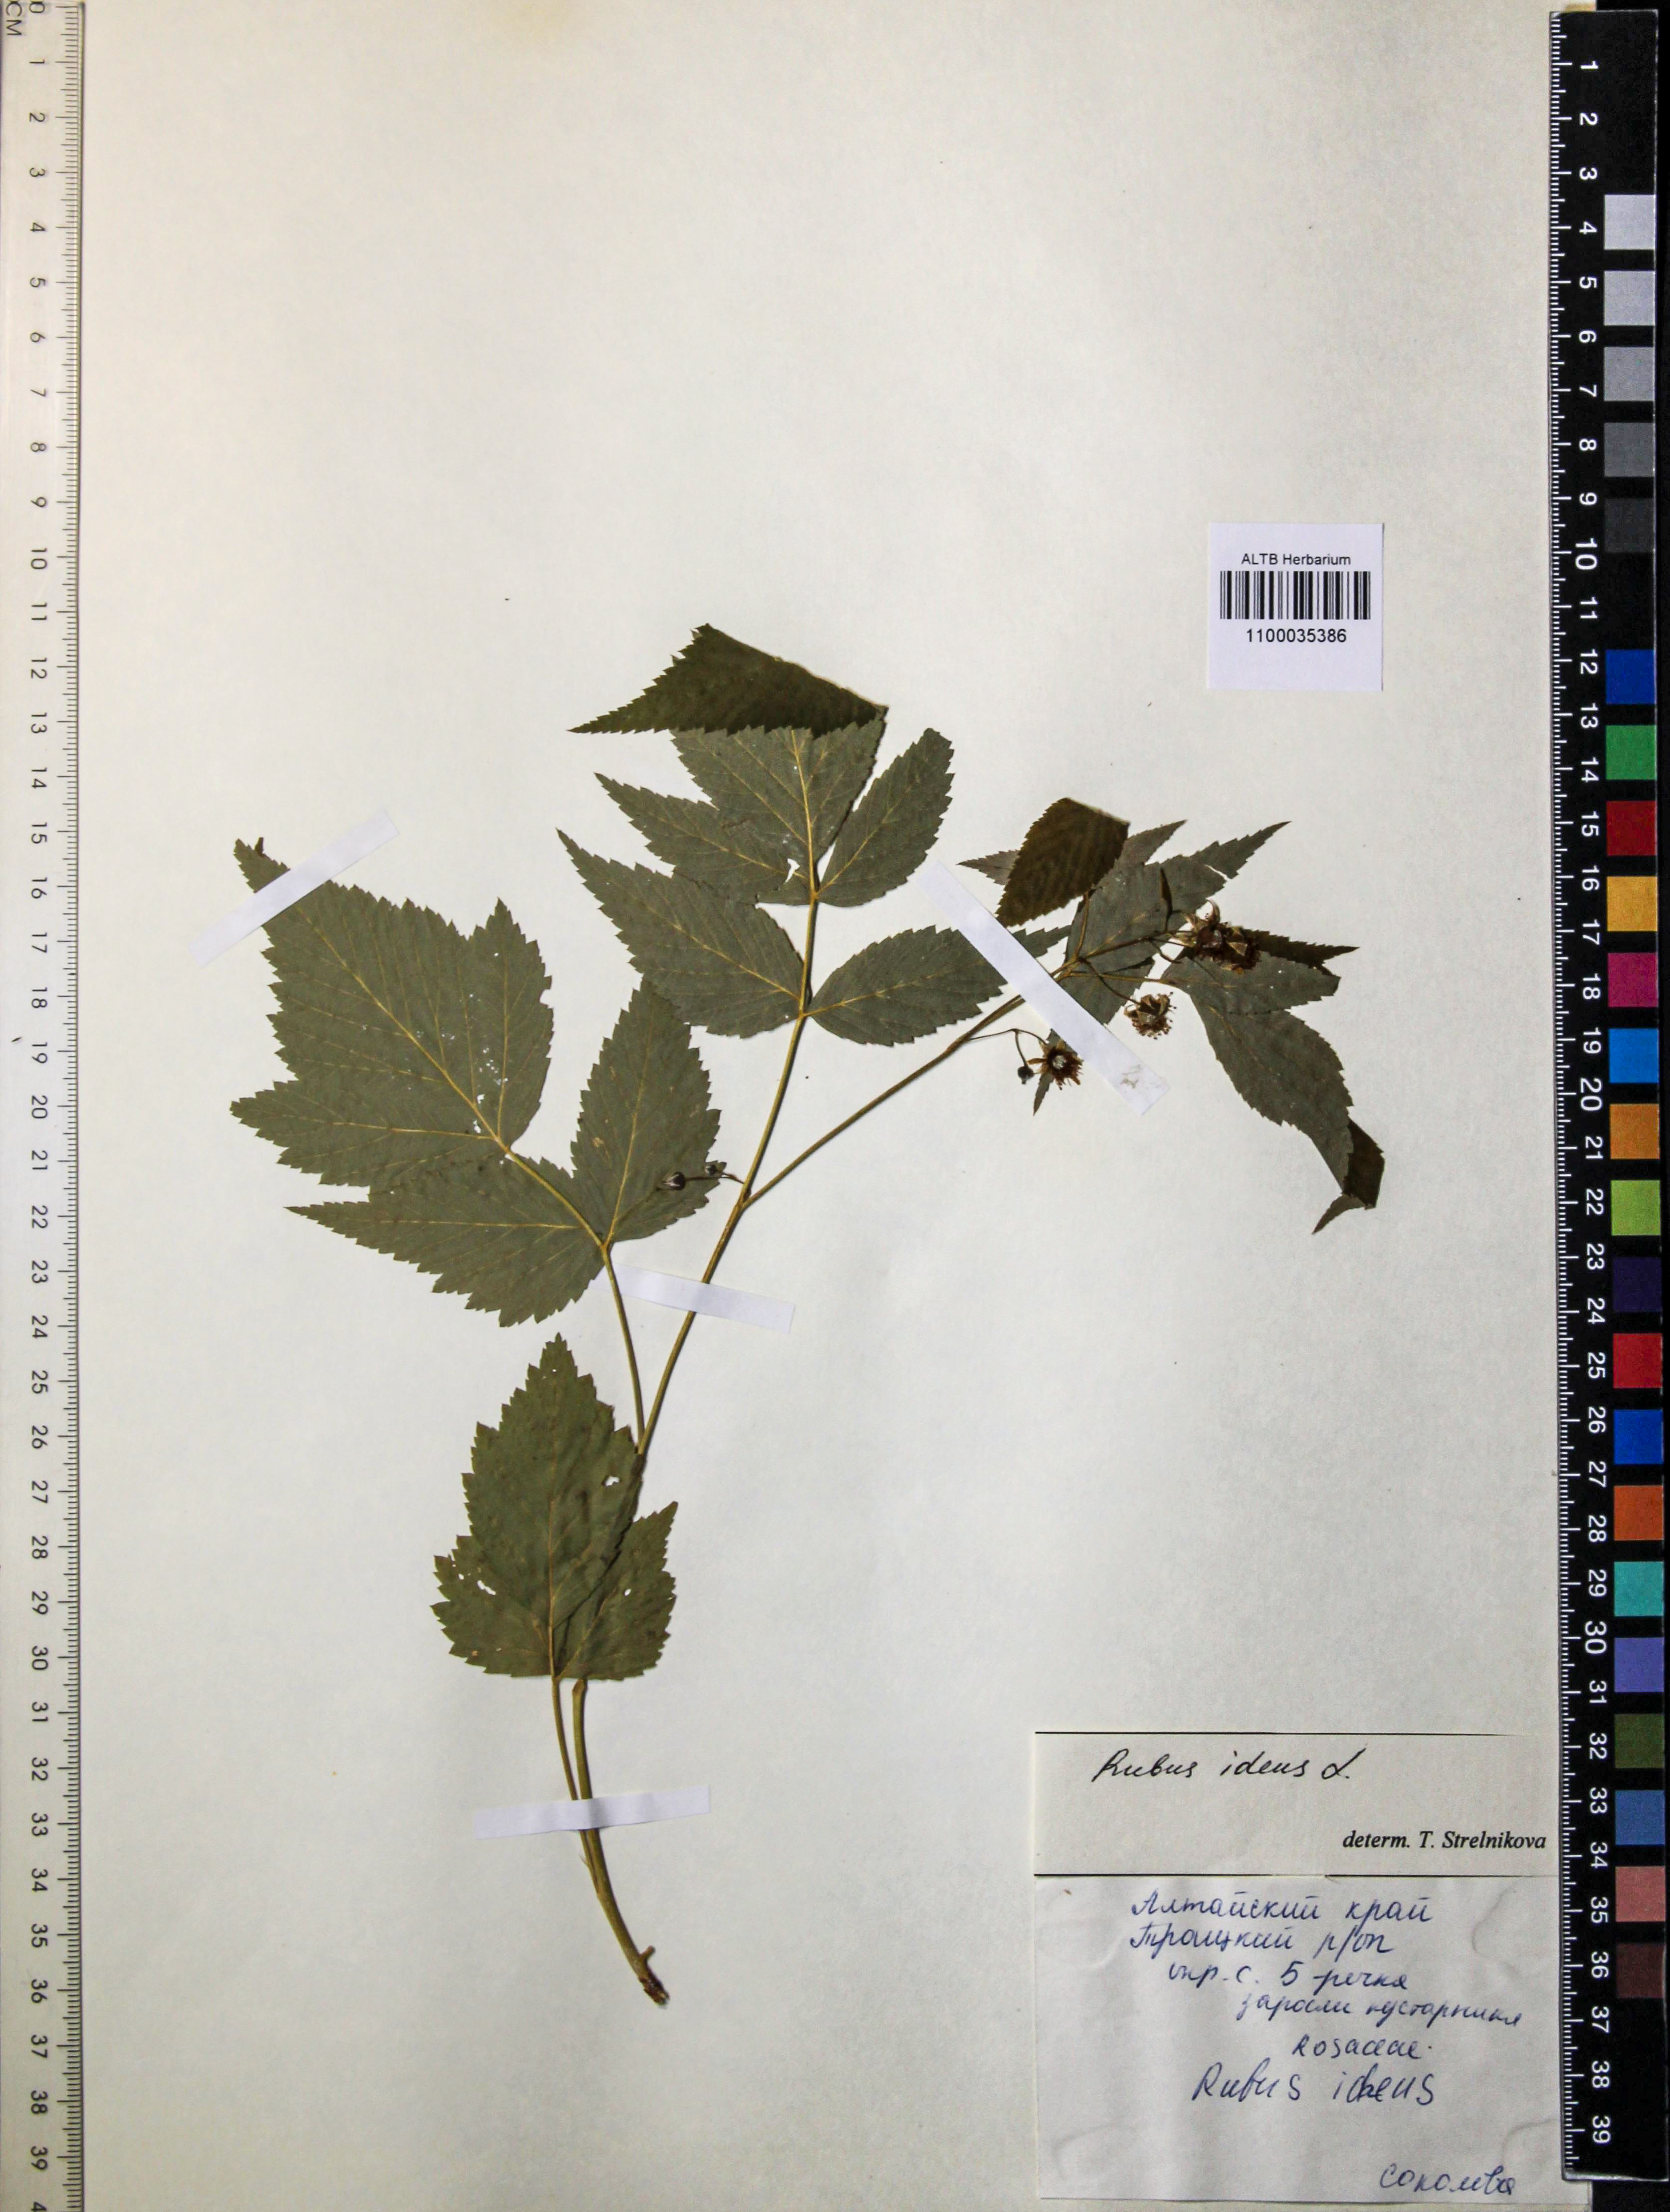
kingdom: Plantae
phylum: Tracheophyta
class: Magnoliopsida
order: Rosales
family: Rosaceae
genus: Rubus
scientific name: Rubus idaeus
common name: Raspberry
